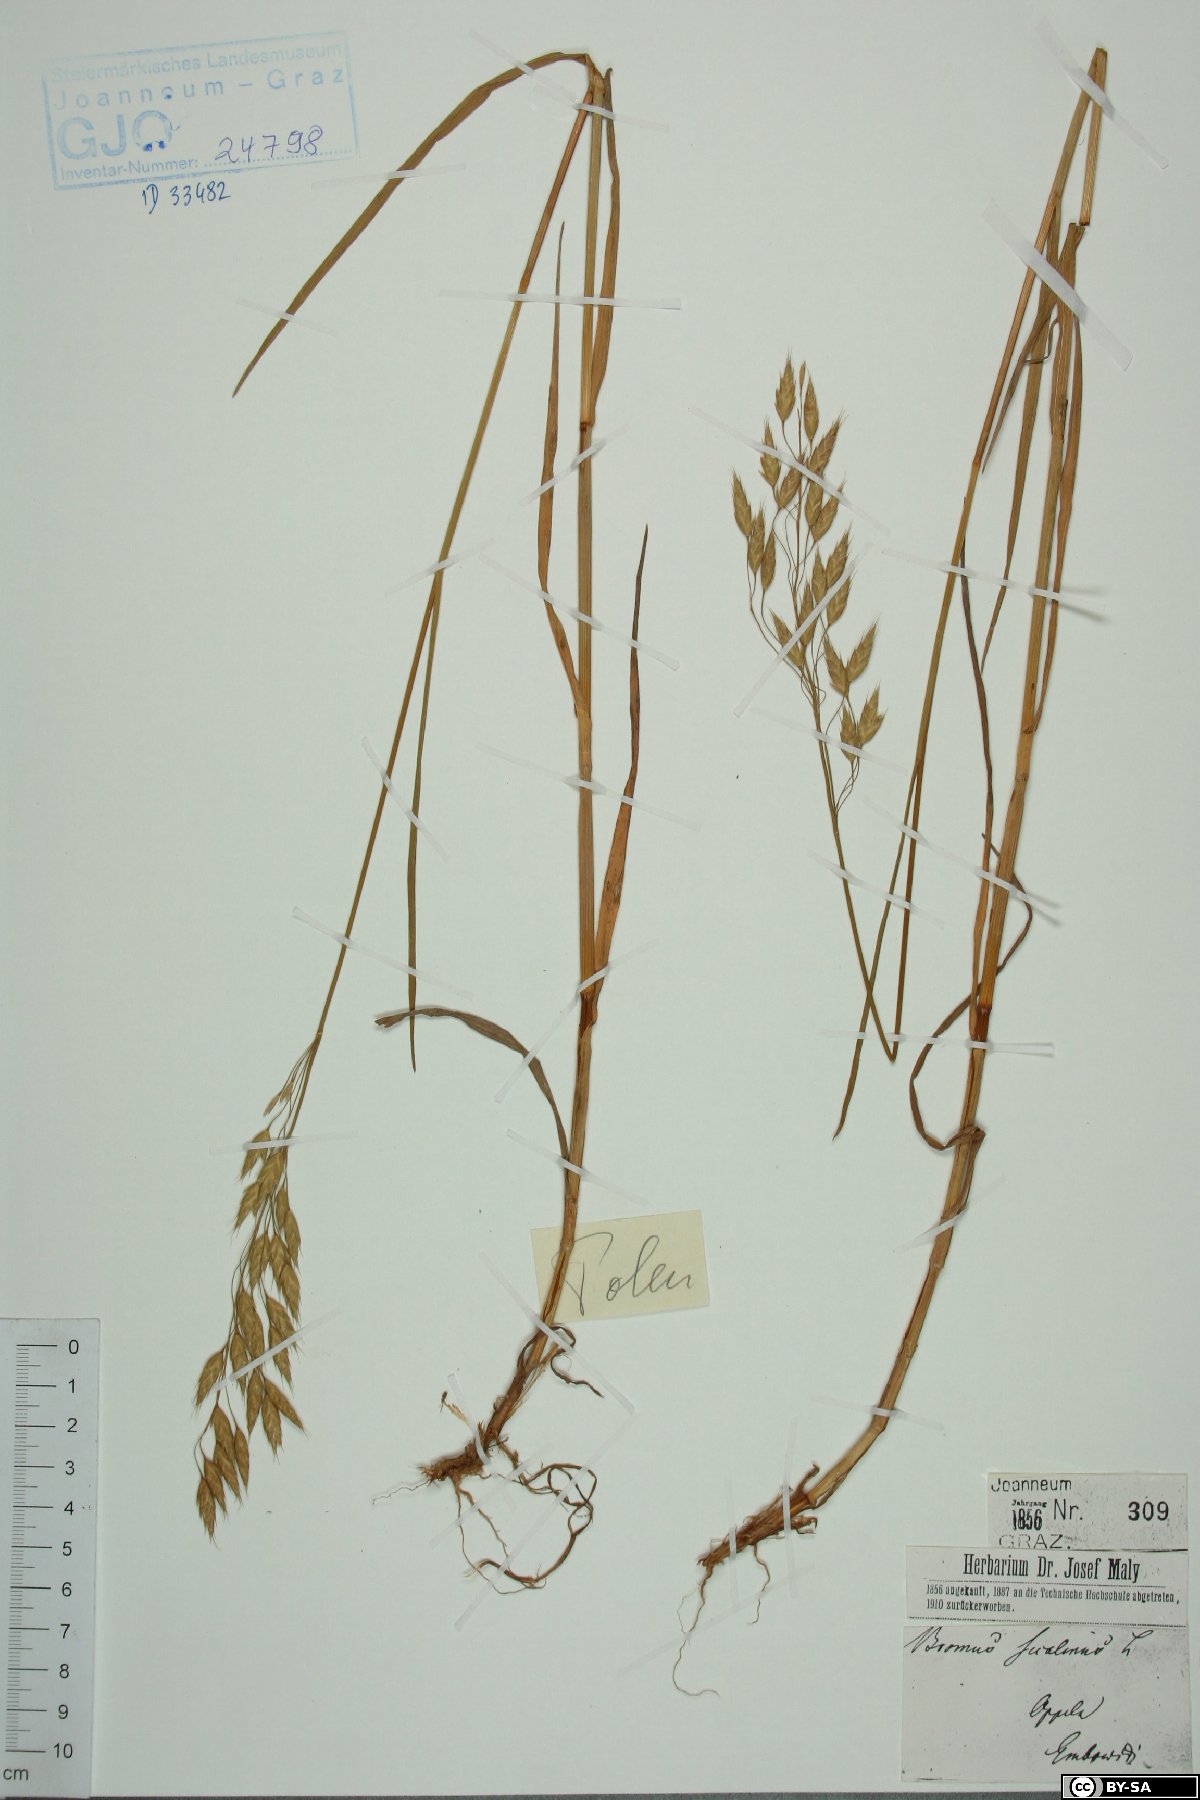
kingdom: Plantae
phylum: Tracheophyta
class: Liliopsida
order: Poales
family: Poaceae
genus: Bromus
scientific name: Bromus secalinus
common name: Rye brome
